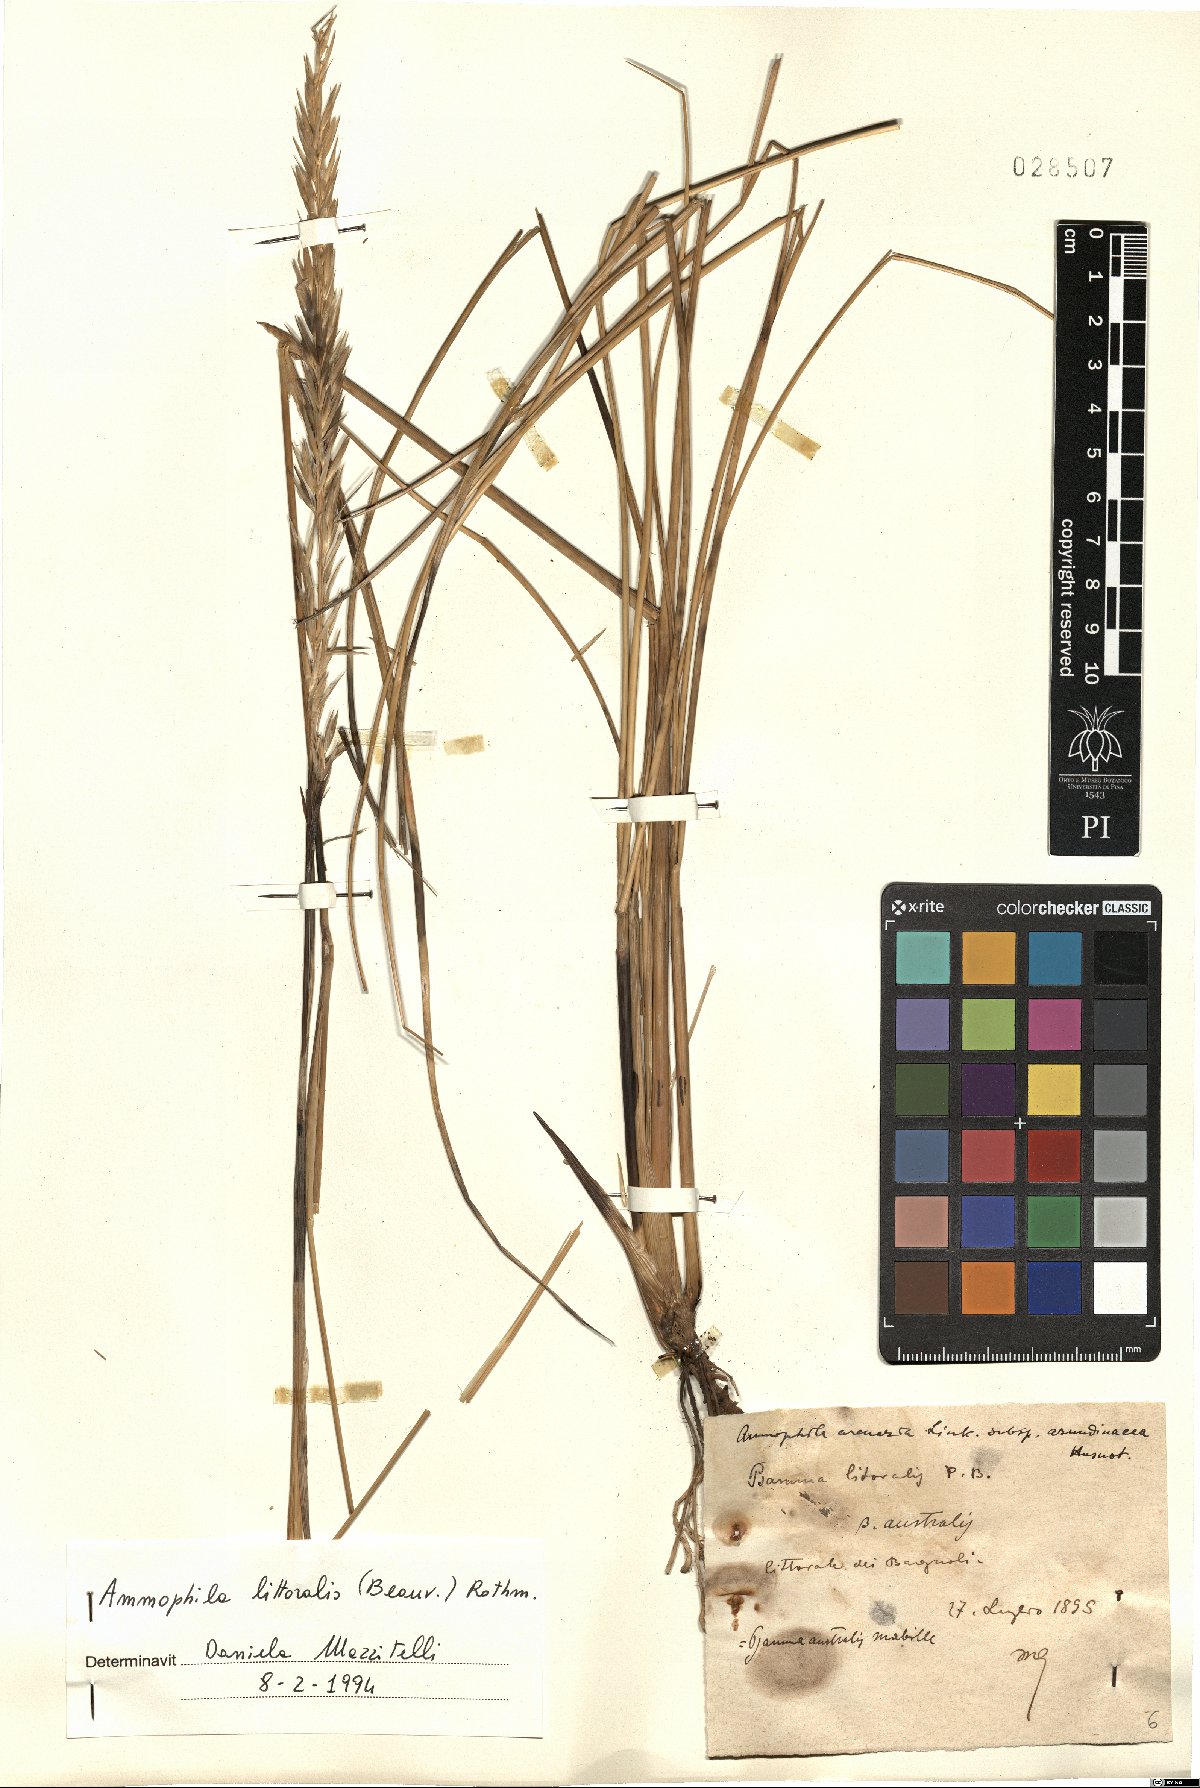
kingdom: Plantae
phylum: Tracheophyta
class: Liliopsida
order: Poales
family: Poaceae
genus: Calamagrostis
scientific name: Calamagrostis arenaria
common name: European beachgrass
